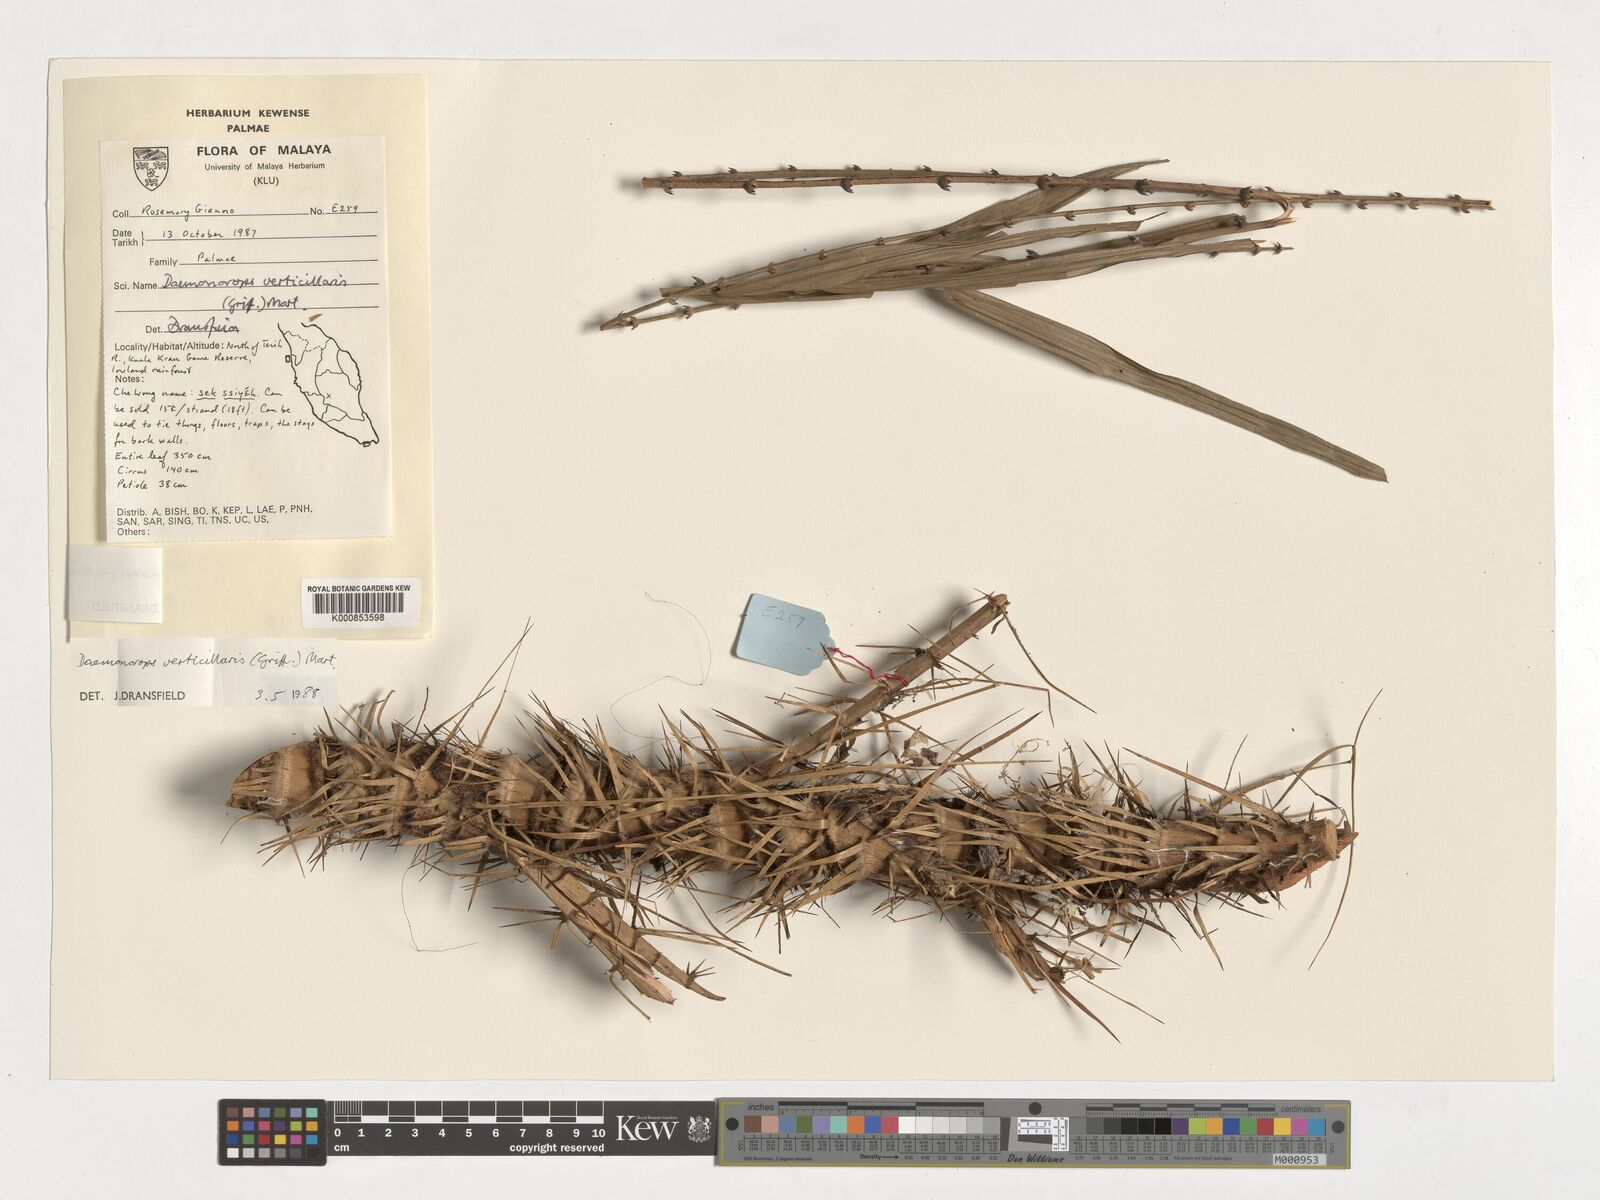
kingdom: Plantae
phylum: Tracheophyta
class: Liliopsida
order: Arecales
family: Arecaceae
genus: Calamus
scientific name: Calamus verticillaris
